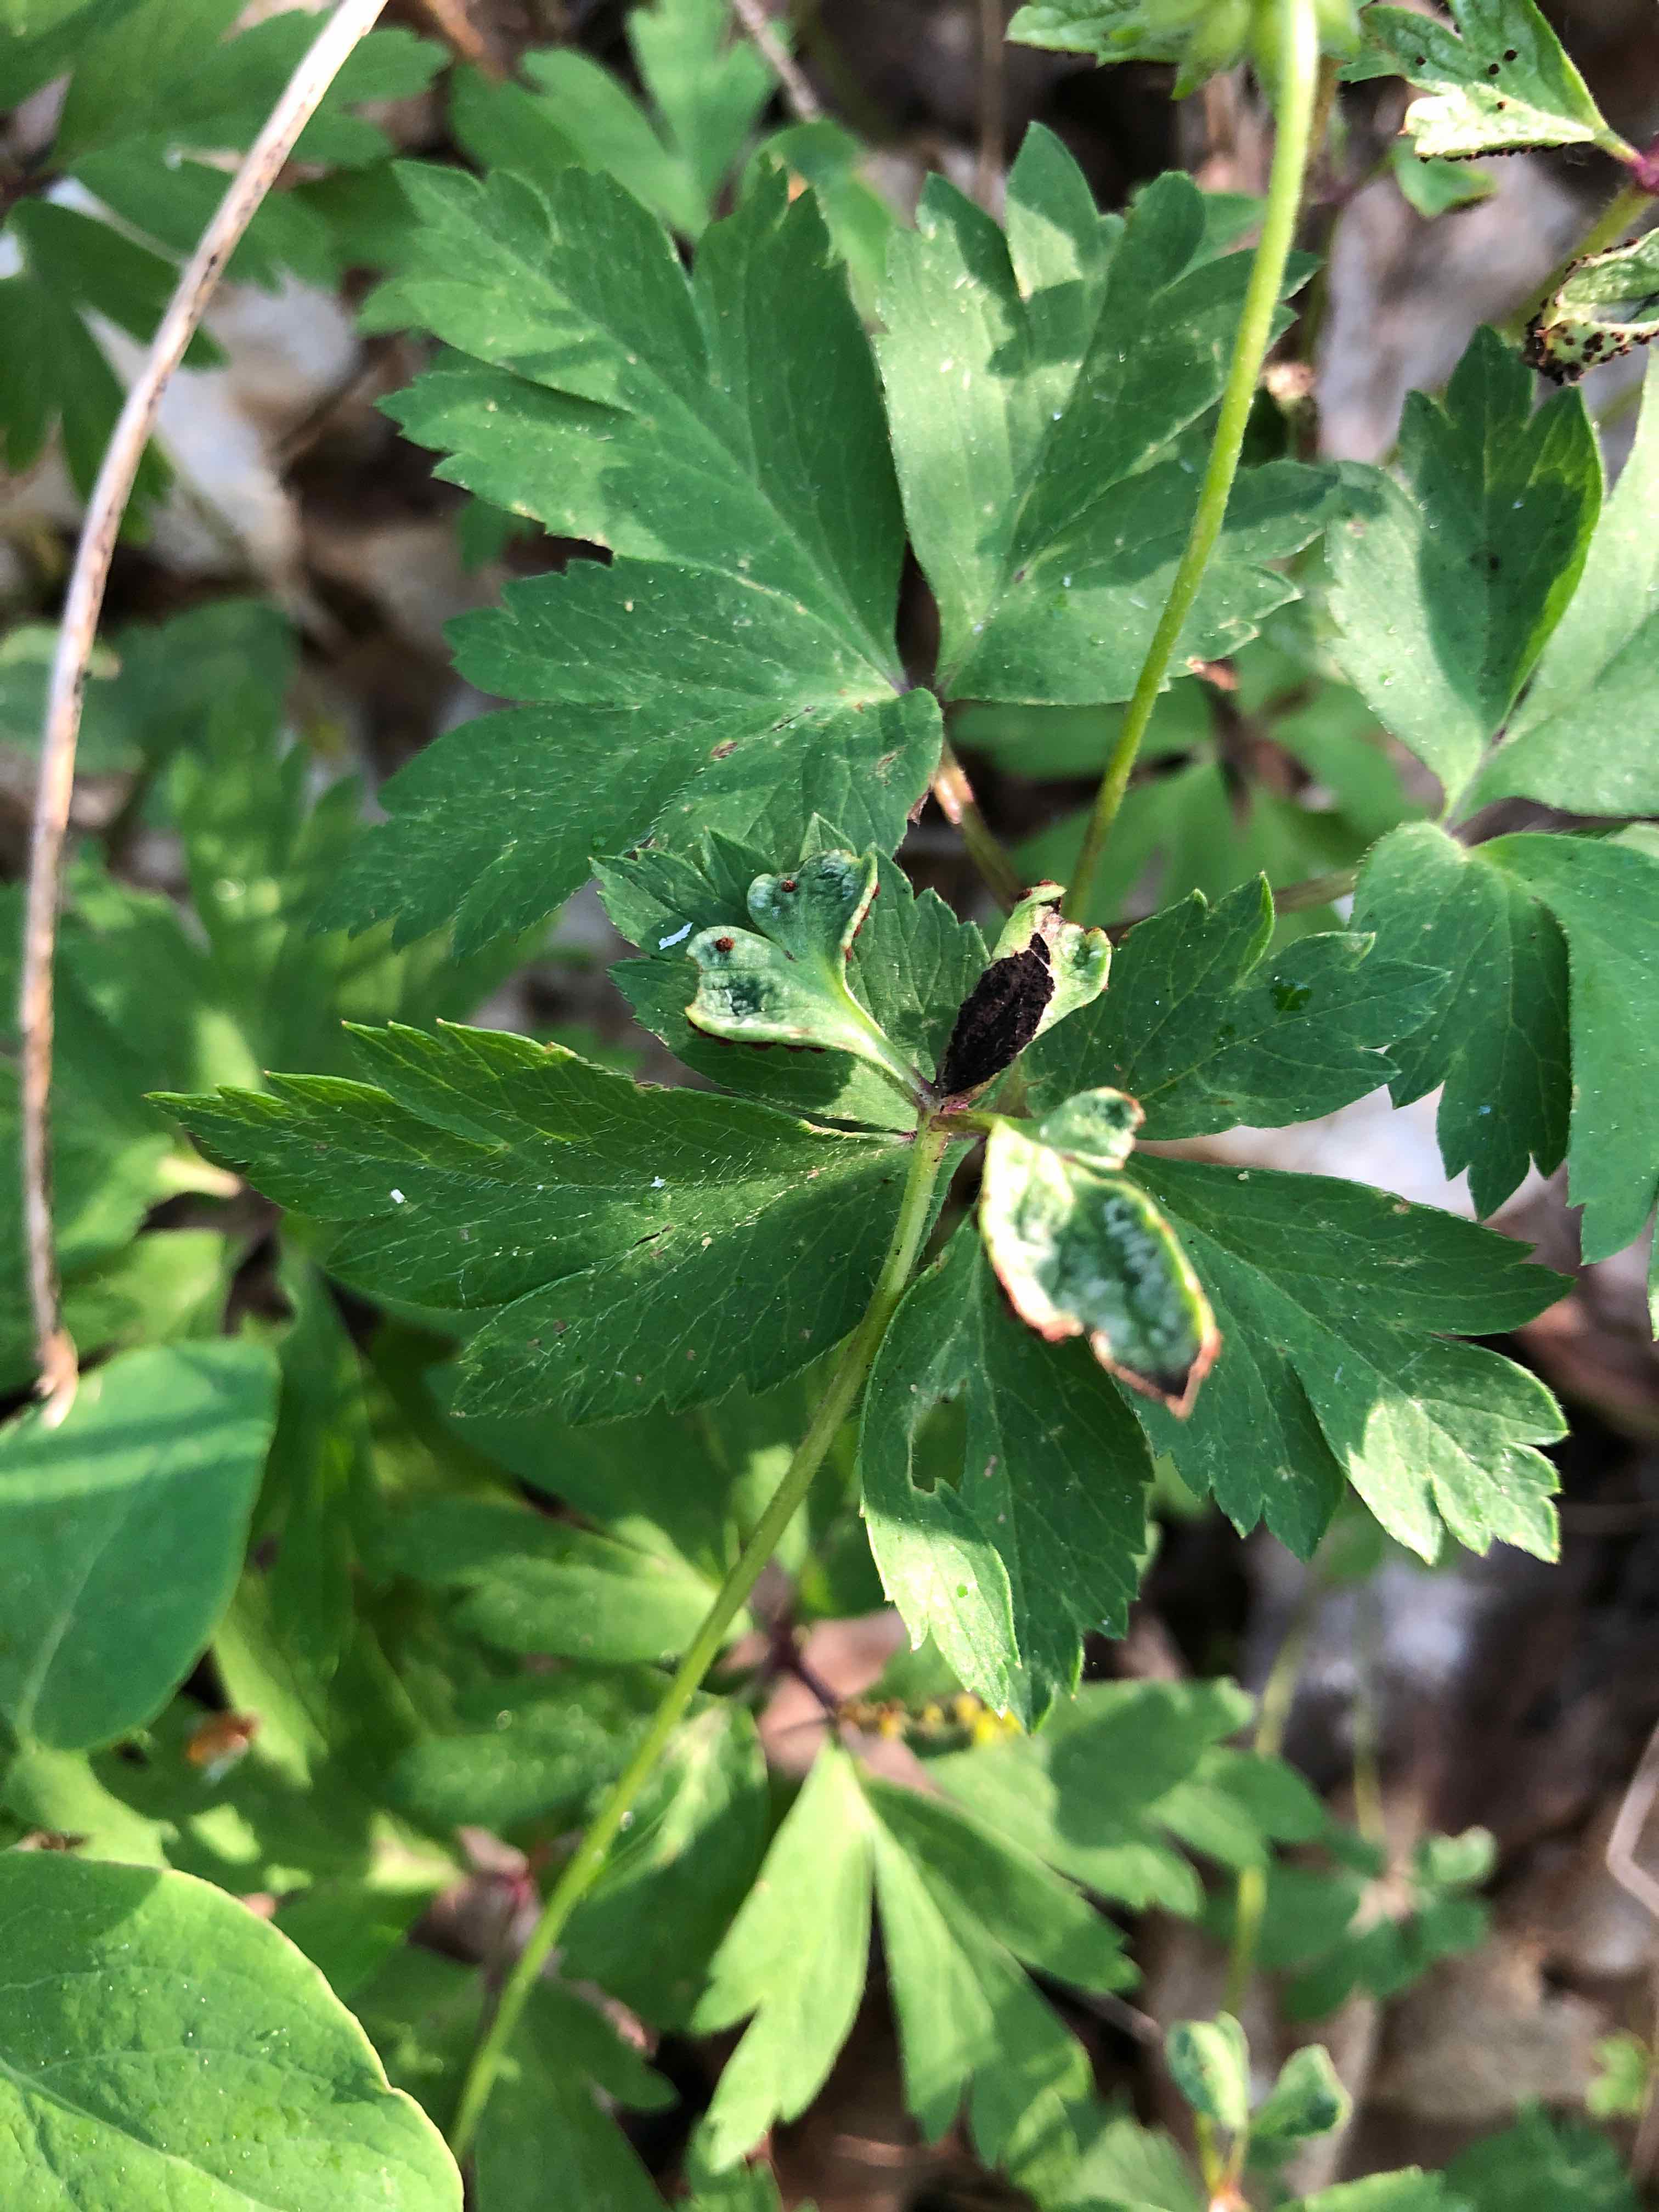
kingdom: Fungi
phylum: Basidiomycota
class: Ustilaginomycetes
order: Urocystidales
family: Urocystidaceae
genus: Urocystis
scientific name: Urocystis anemones
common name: anemone-brand
